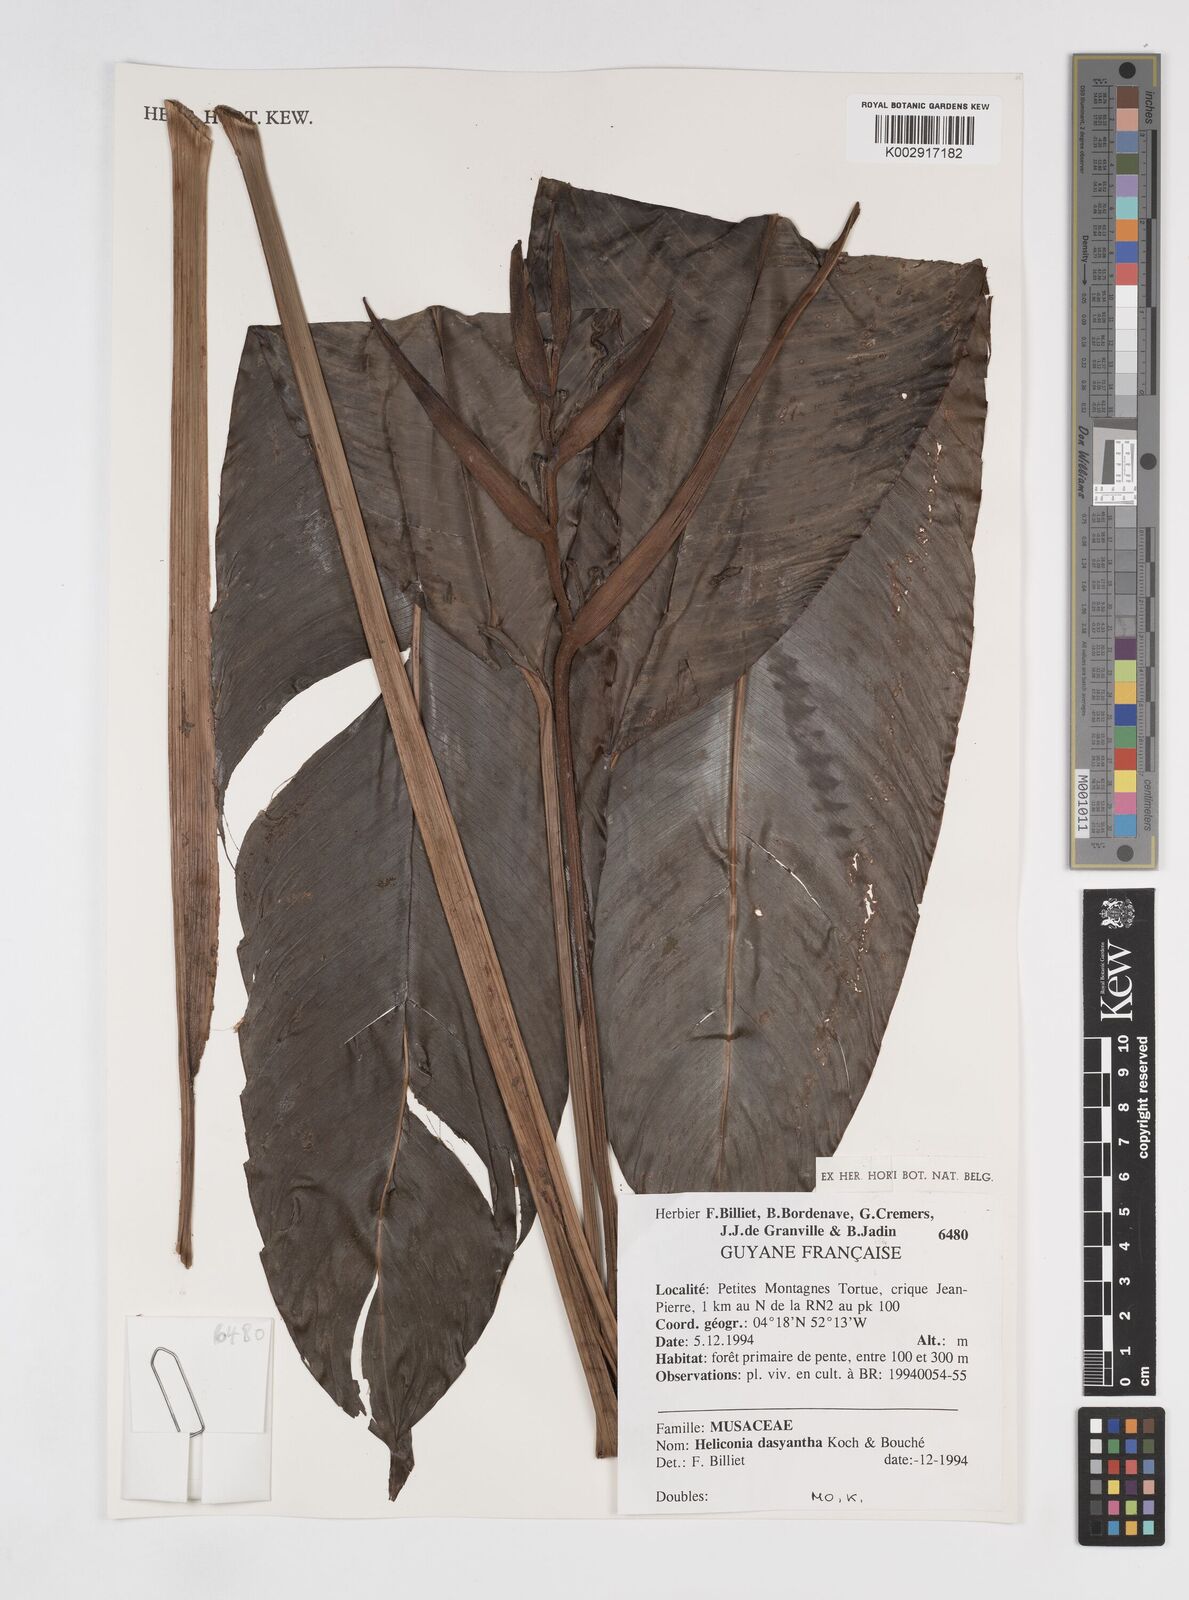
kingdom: Plantae
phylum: Tracheophyta
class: Liliopsida
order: Zingiberales
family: Heliconiaceae
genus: Heliconia
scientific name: Heliconia dasyantha
